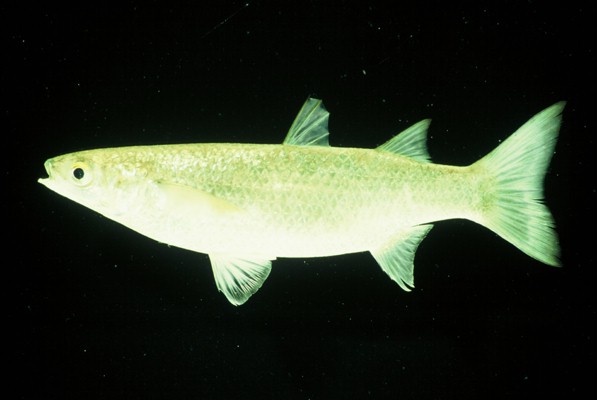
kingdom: Animalia
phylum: Chordata
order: Mugiliformes
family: Mugilidae
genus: Chelon
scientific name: Chelon dumerili
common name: Groovy mullet
